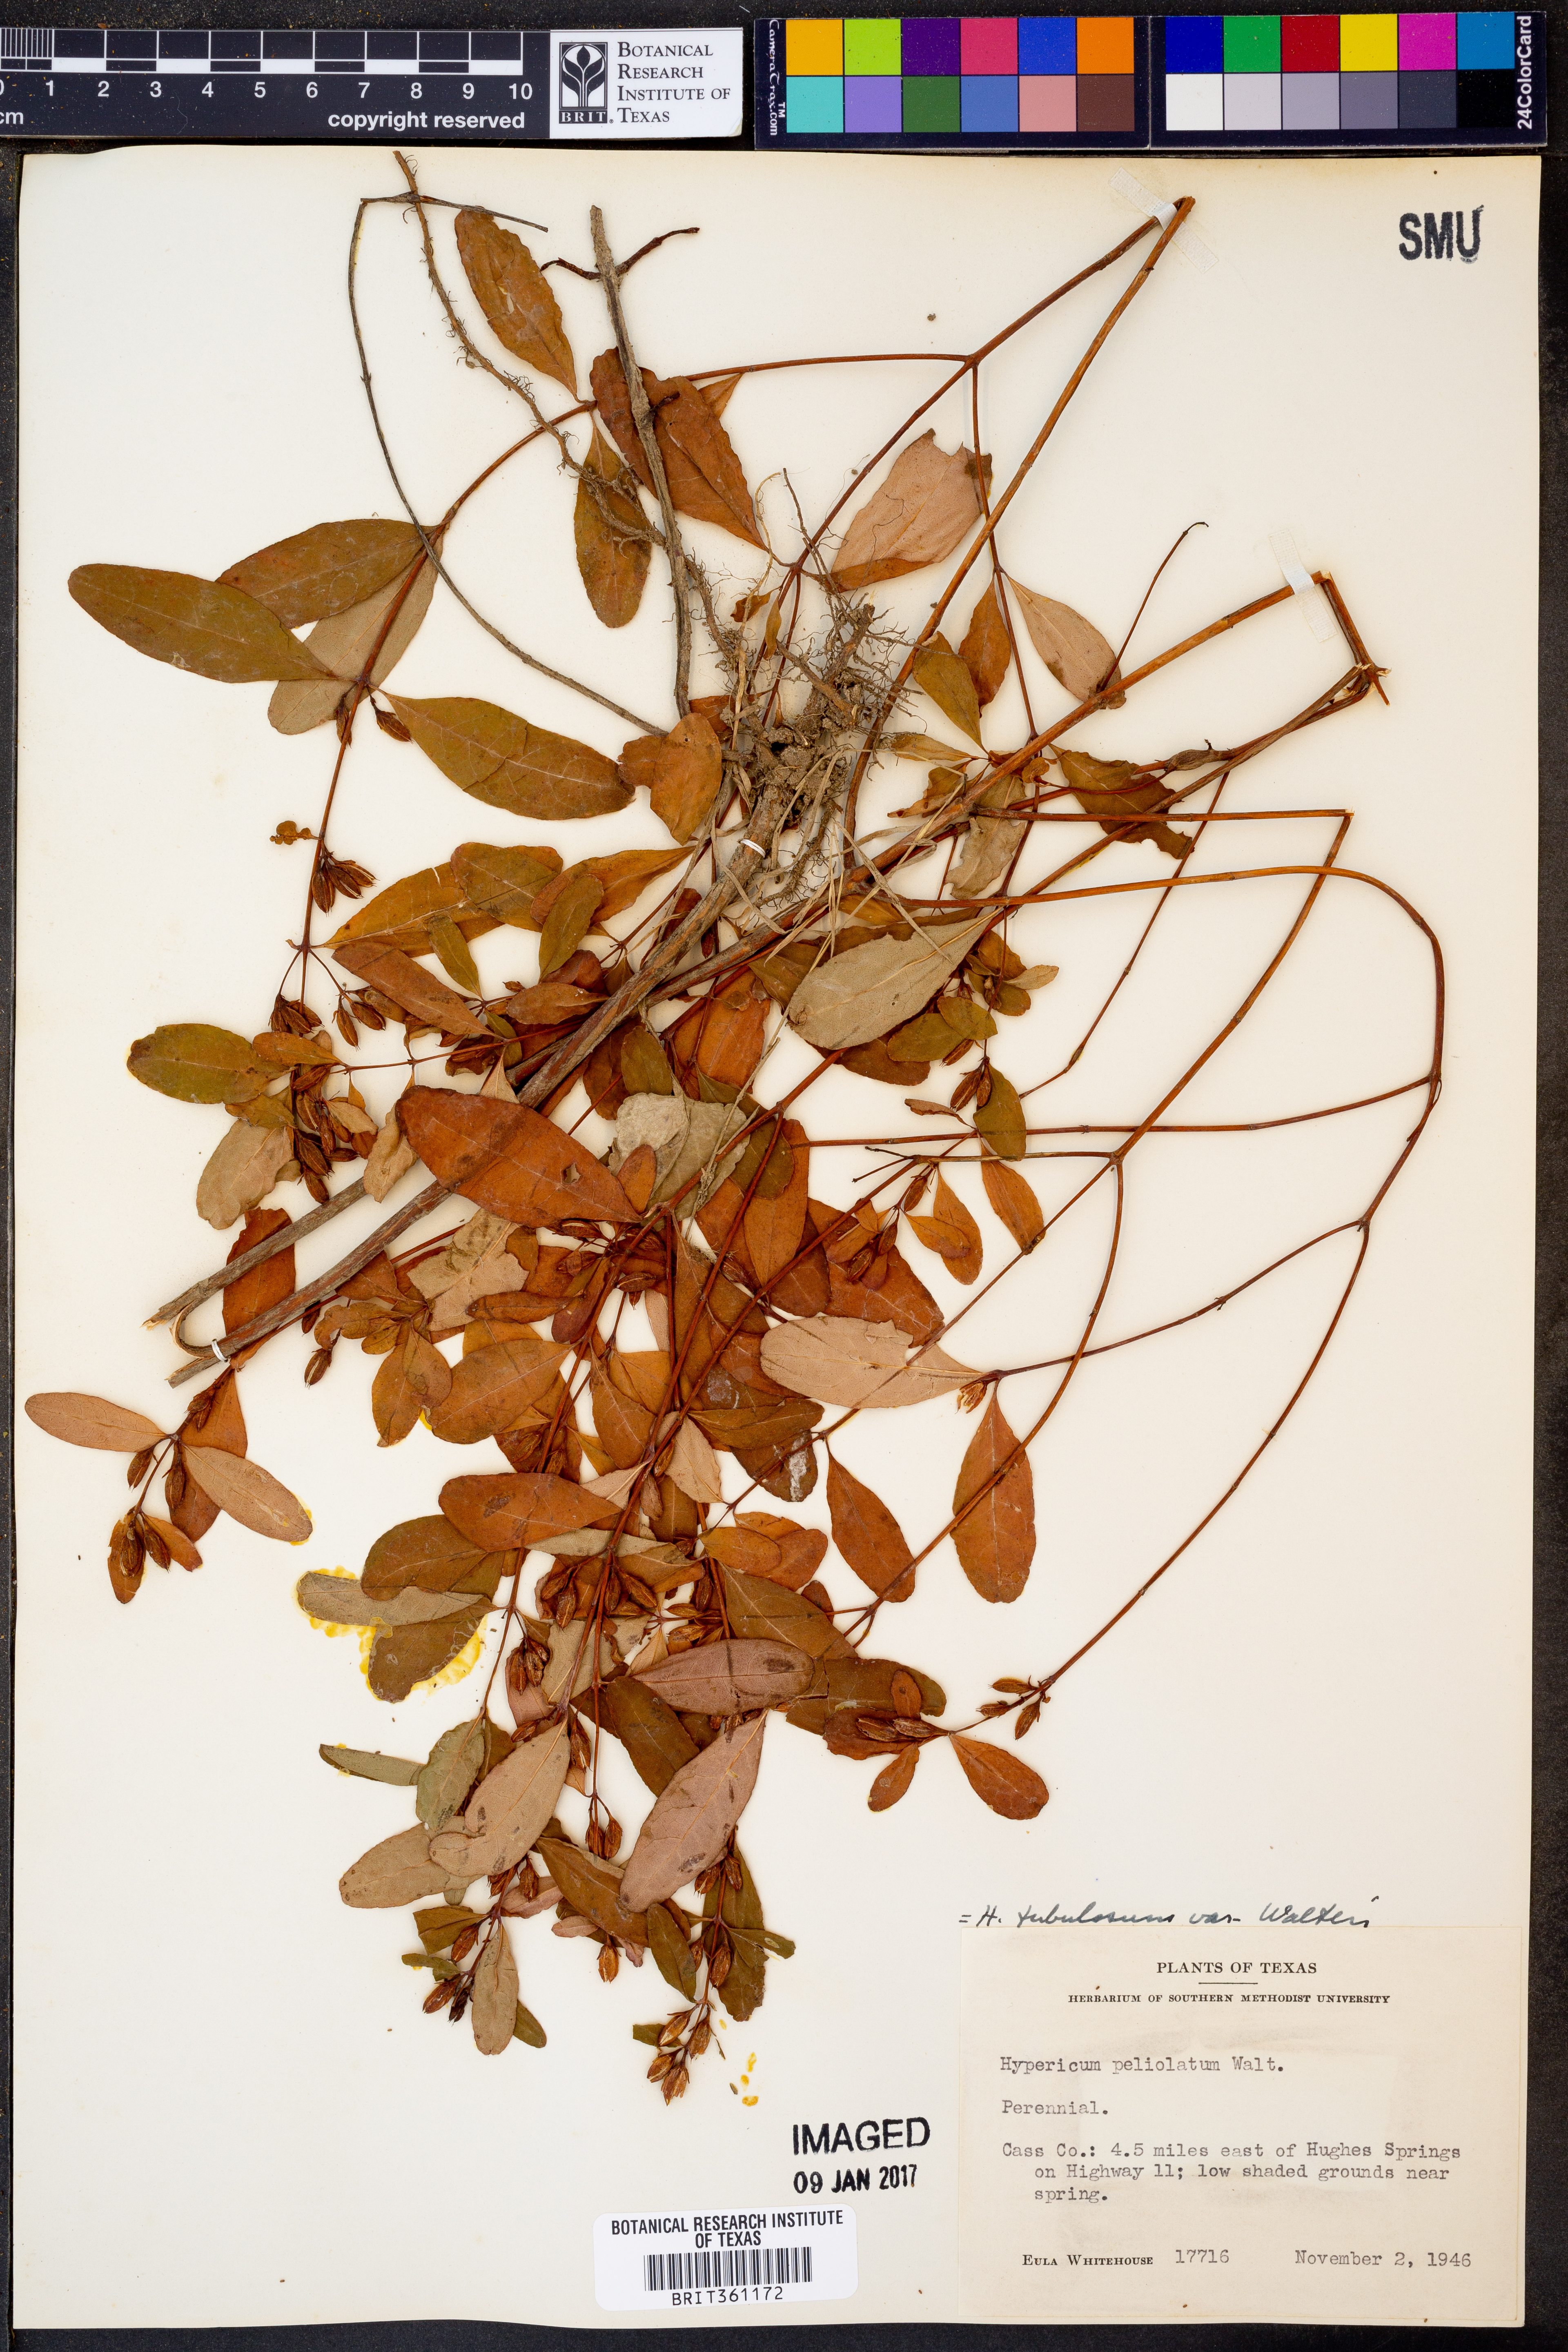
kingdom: Plantae
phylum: Tracheophyta
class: Magnoliopsida
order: Malpighiales
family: Hypericaceae
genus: Triadenum
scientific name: Triadenum walteri
